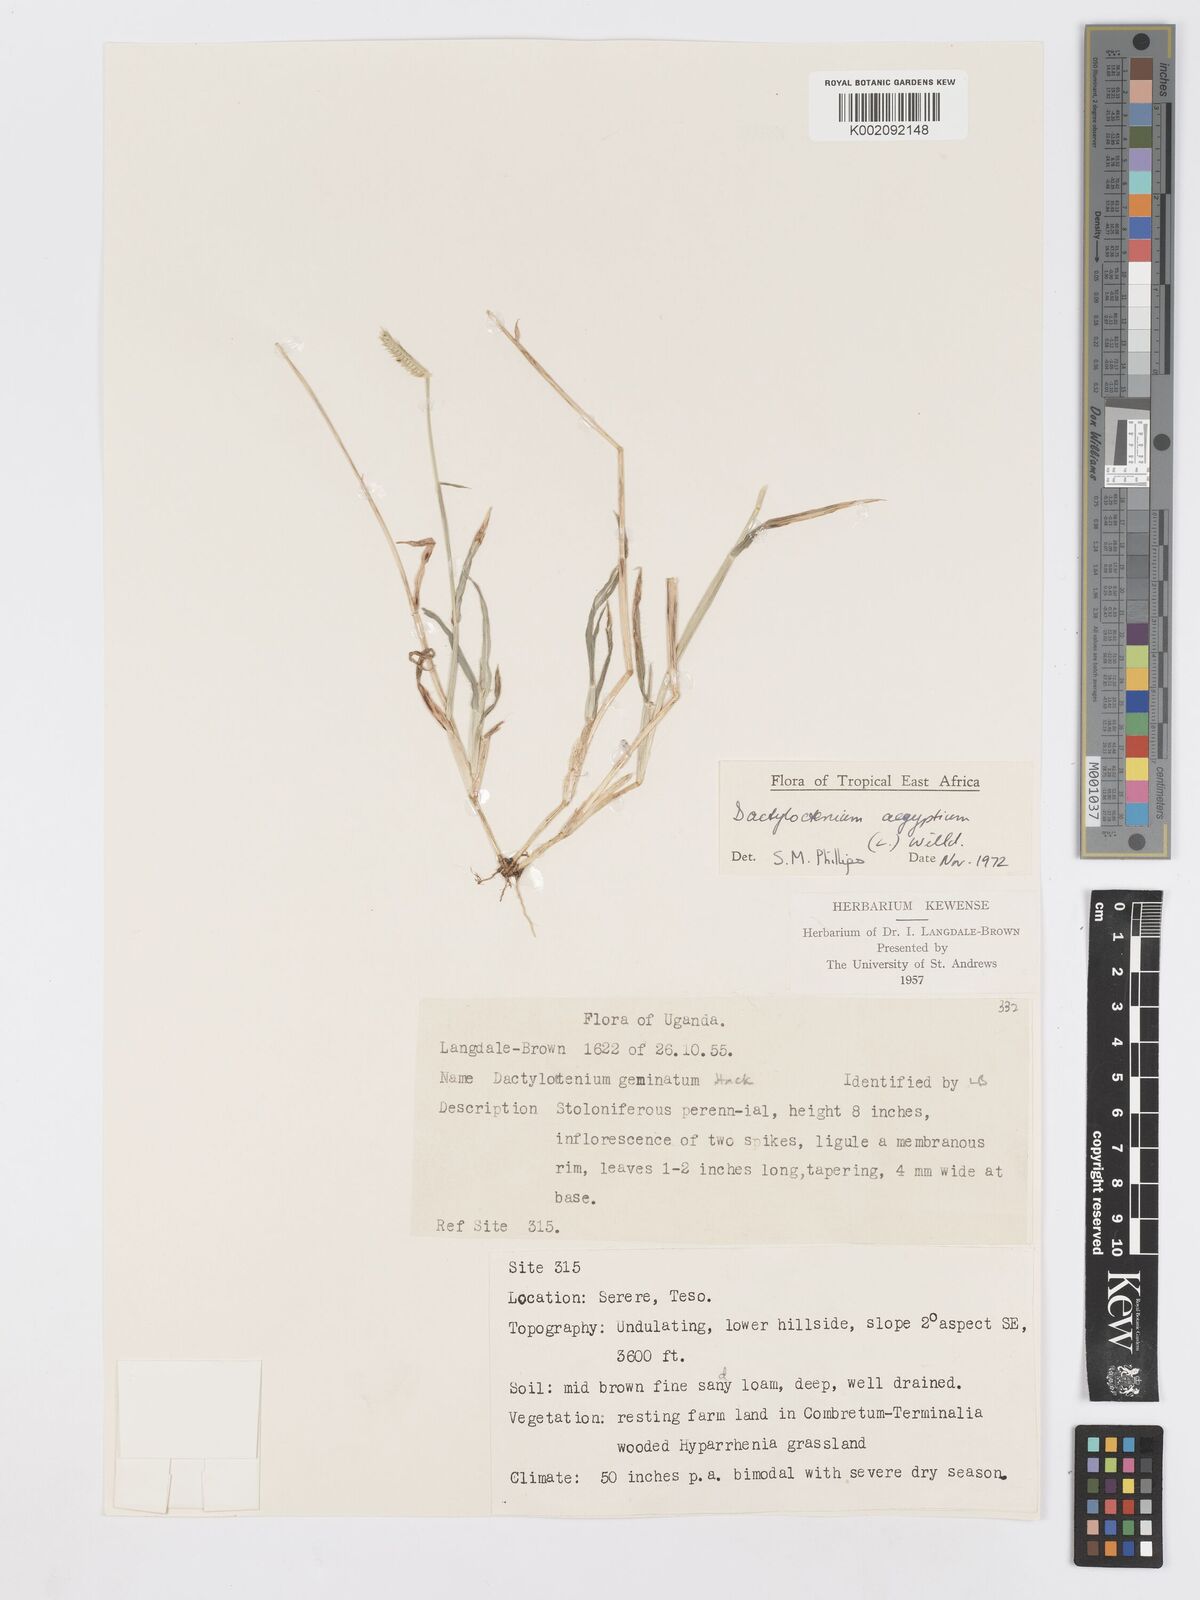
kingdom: Plantae
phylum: Tracheophyta
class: Liliopsida
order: Poales
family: Poaceae
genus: Dactyloctenium
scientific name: Dactyloctenium aegyptium
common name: Egyptian grass
